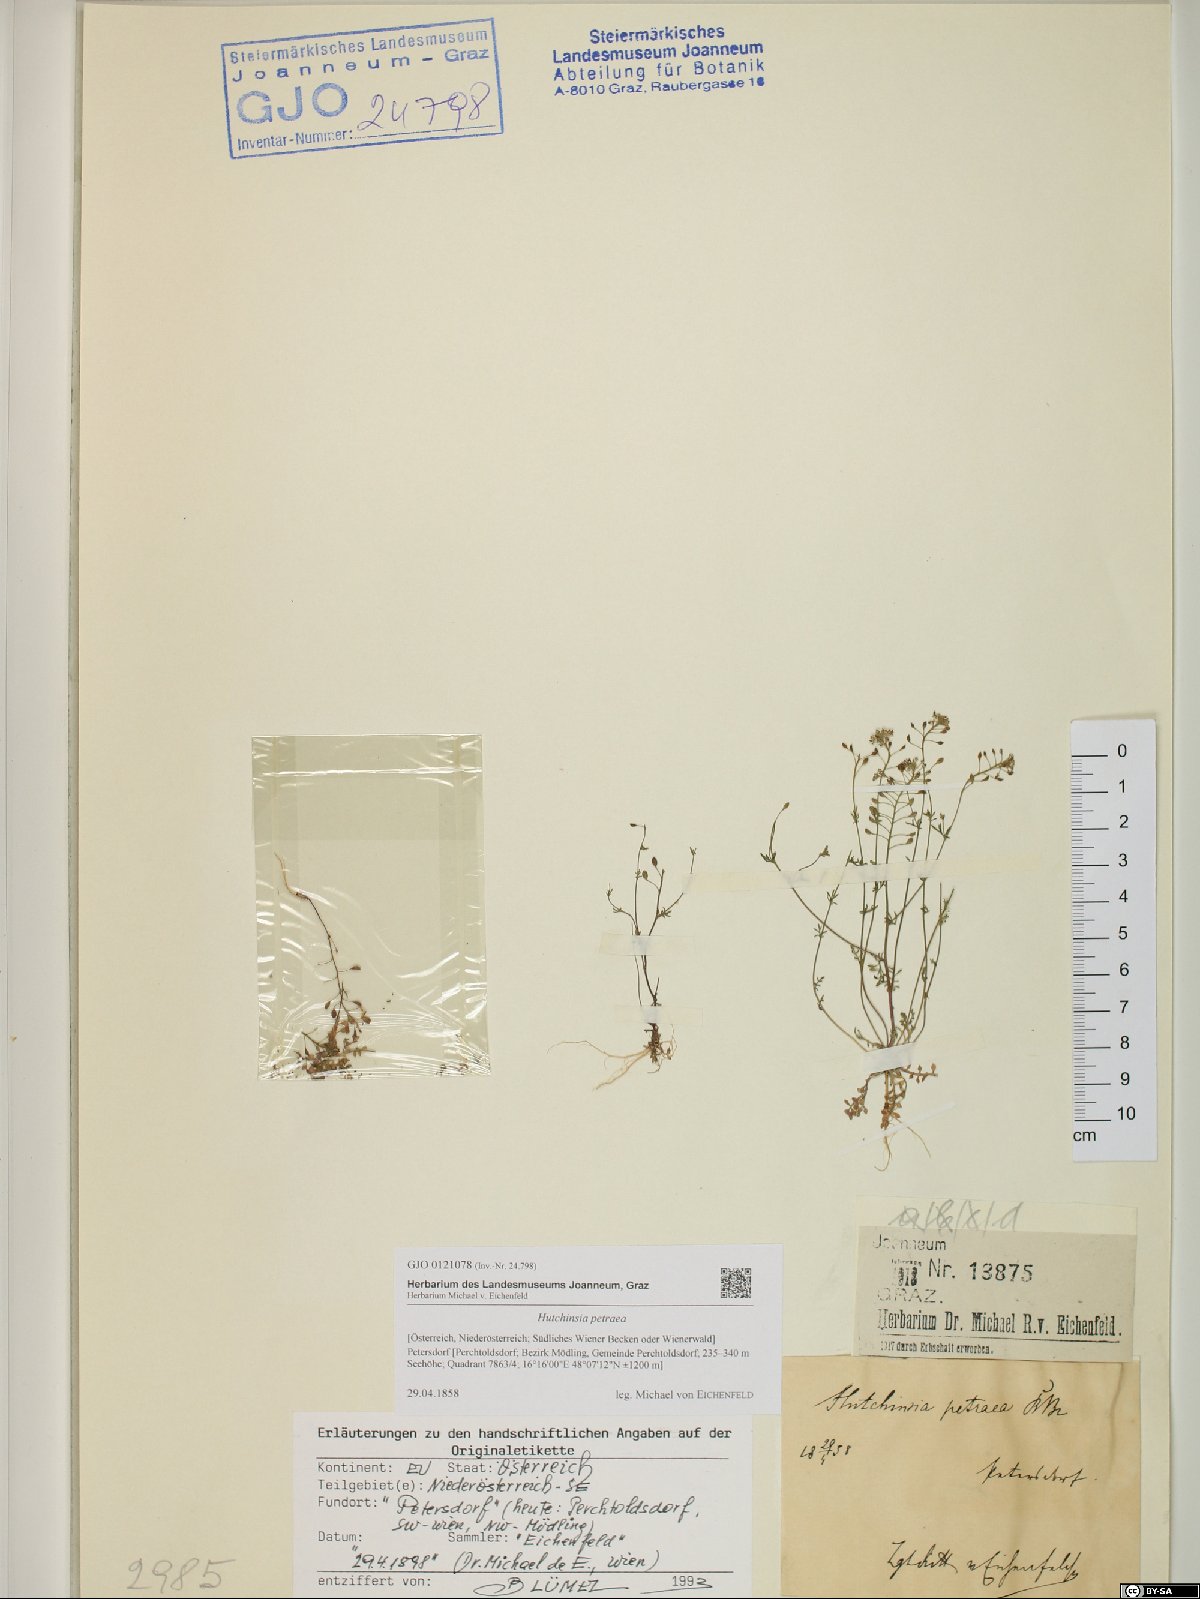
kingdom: Plantae
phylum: Tracheophyta
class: Magnoliopsida
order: Brassicales
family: Brassicaceae
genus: Hornungia
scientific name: Hornungia petraea
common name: Hutchinsia
